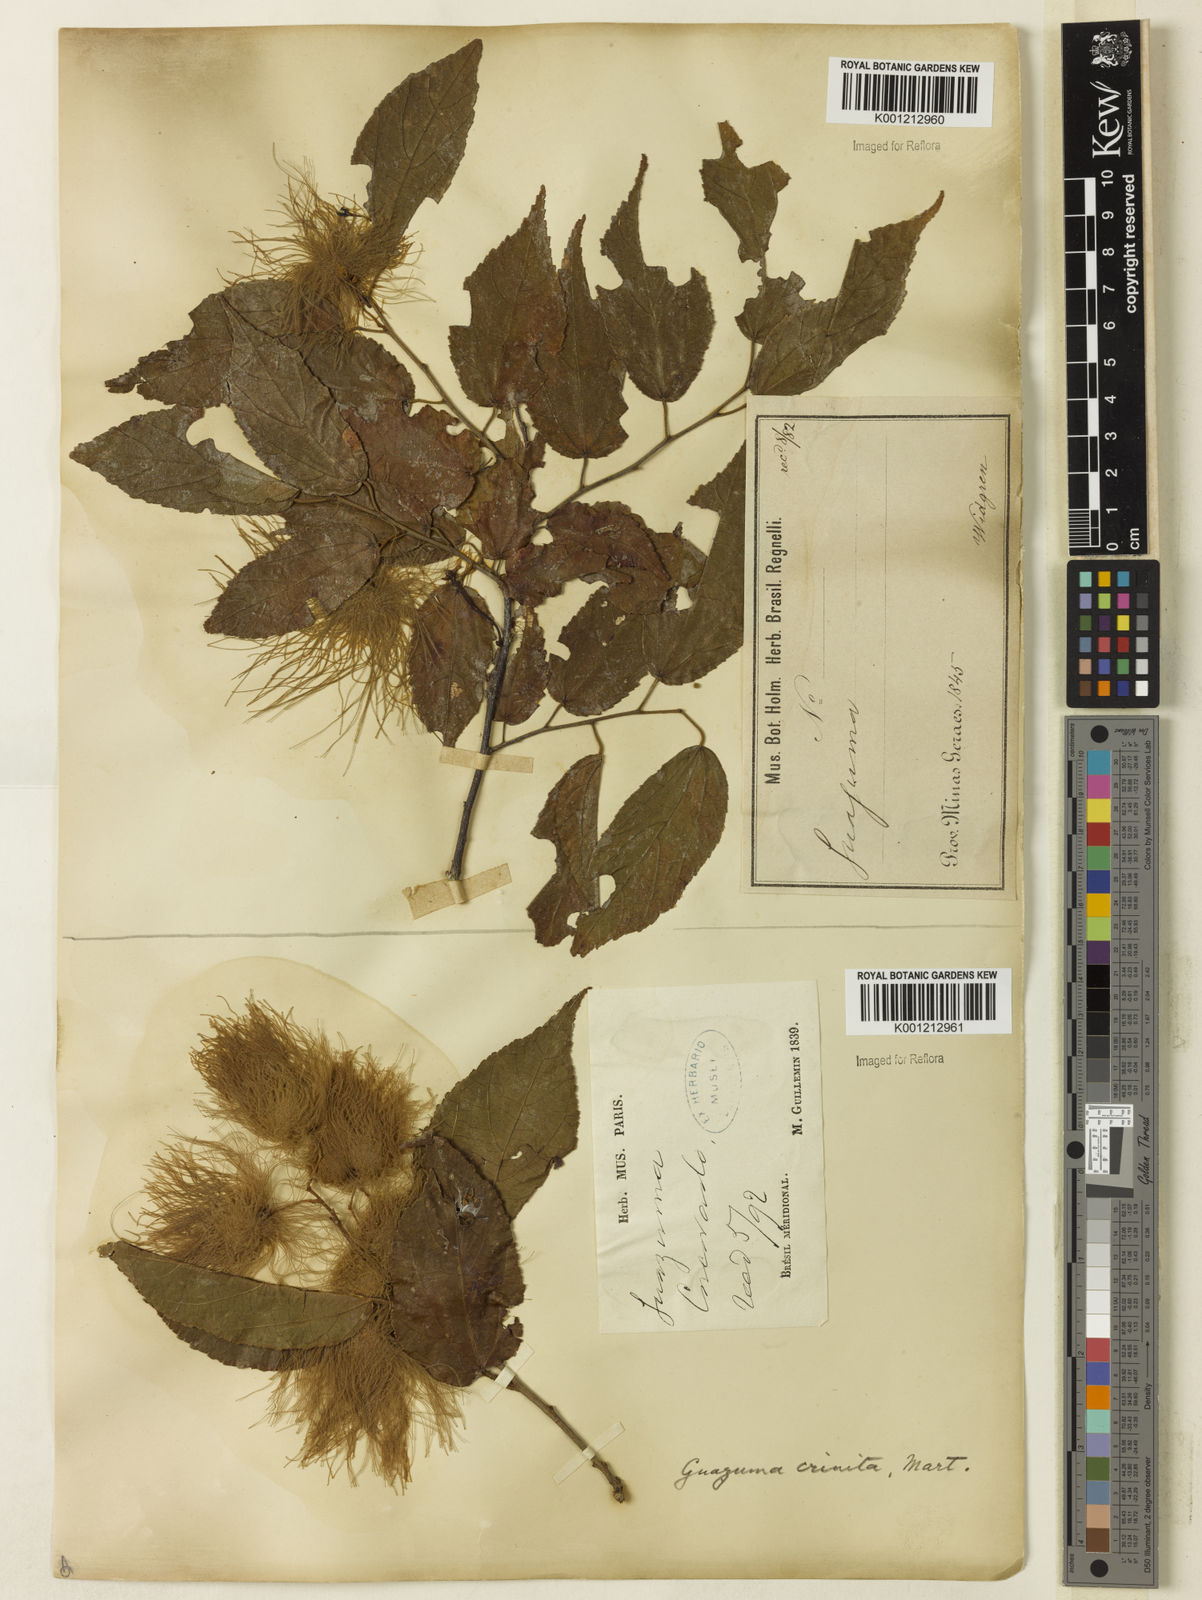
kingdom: Plantae
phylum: Tracheophyta
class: Magnoliopsida
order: Malvales
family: Malvaceae
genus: Guazuma
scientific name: Guazuma crinita
